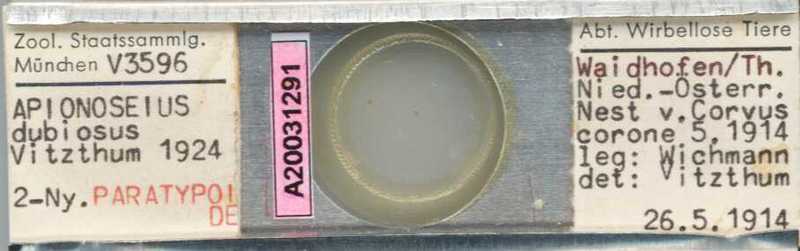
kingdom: Animalia
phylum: Arthropoda
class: Arachnida
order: Mesostigmata
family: Dithinozerconidae
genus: Uroseius
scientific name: Uroseius
